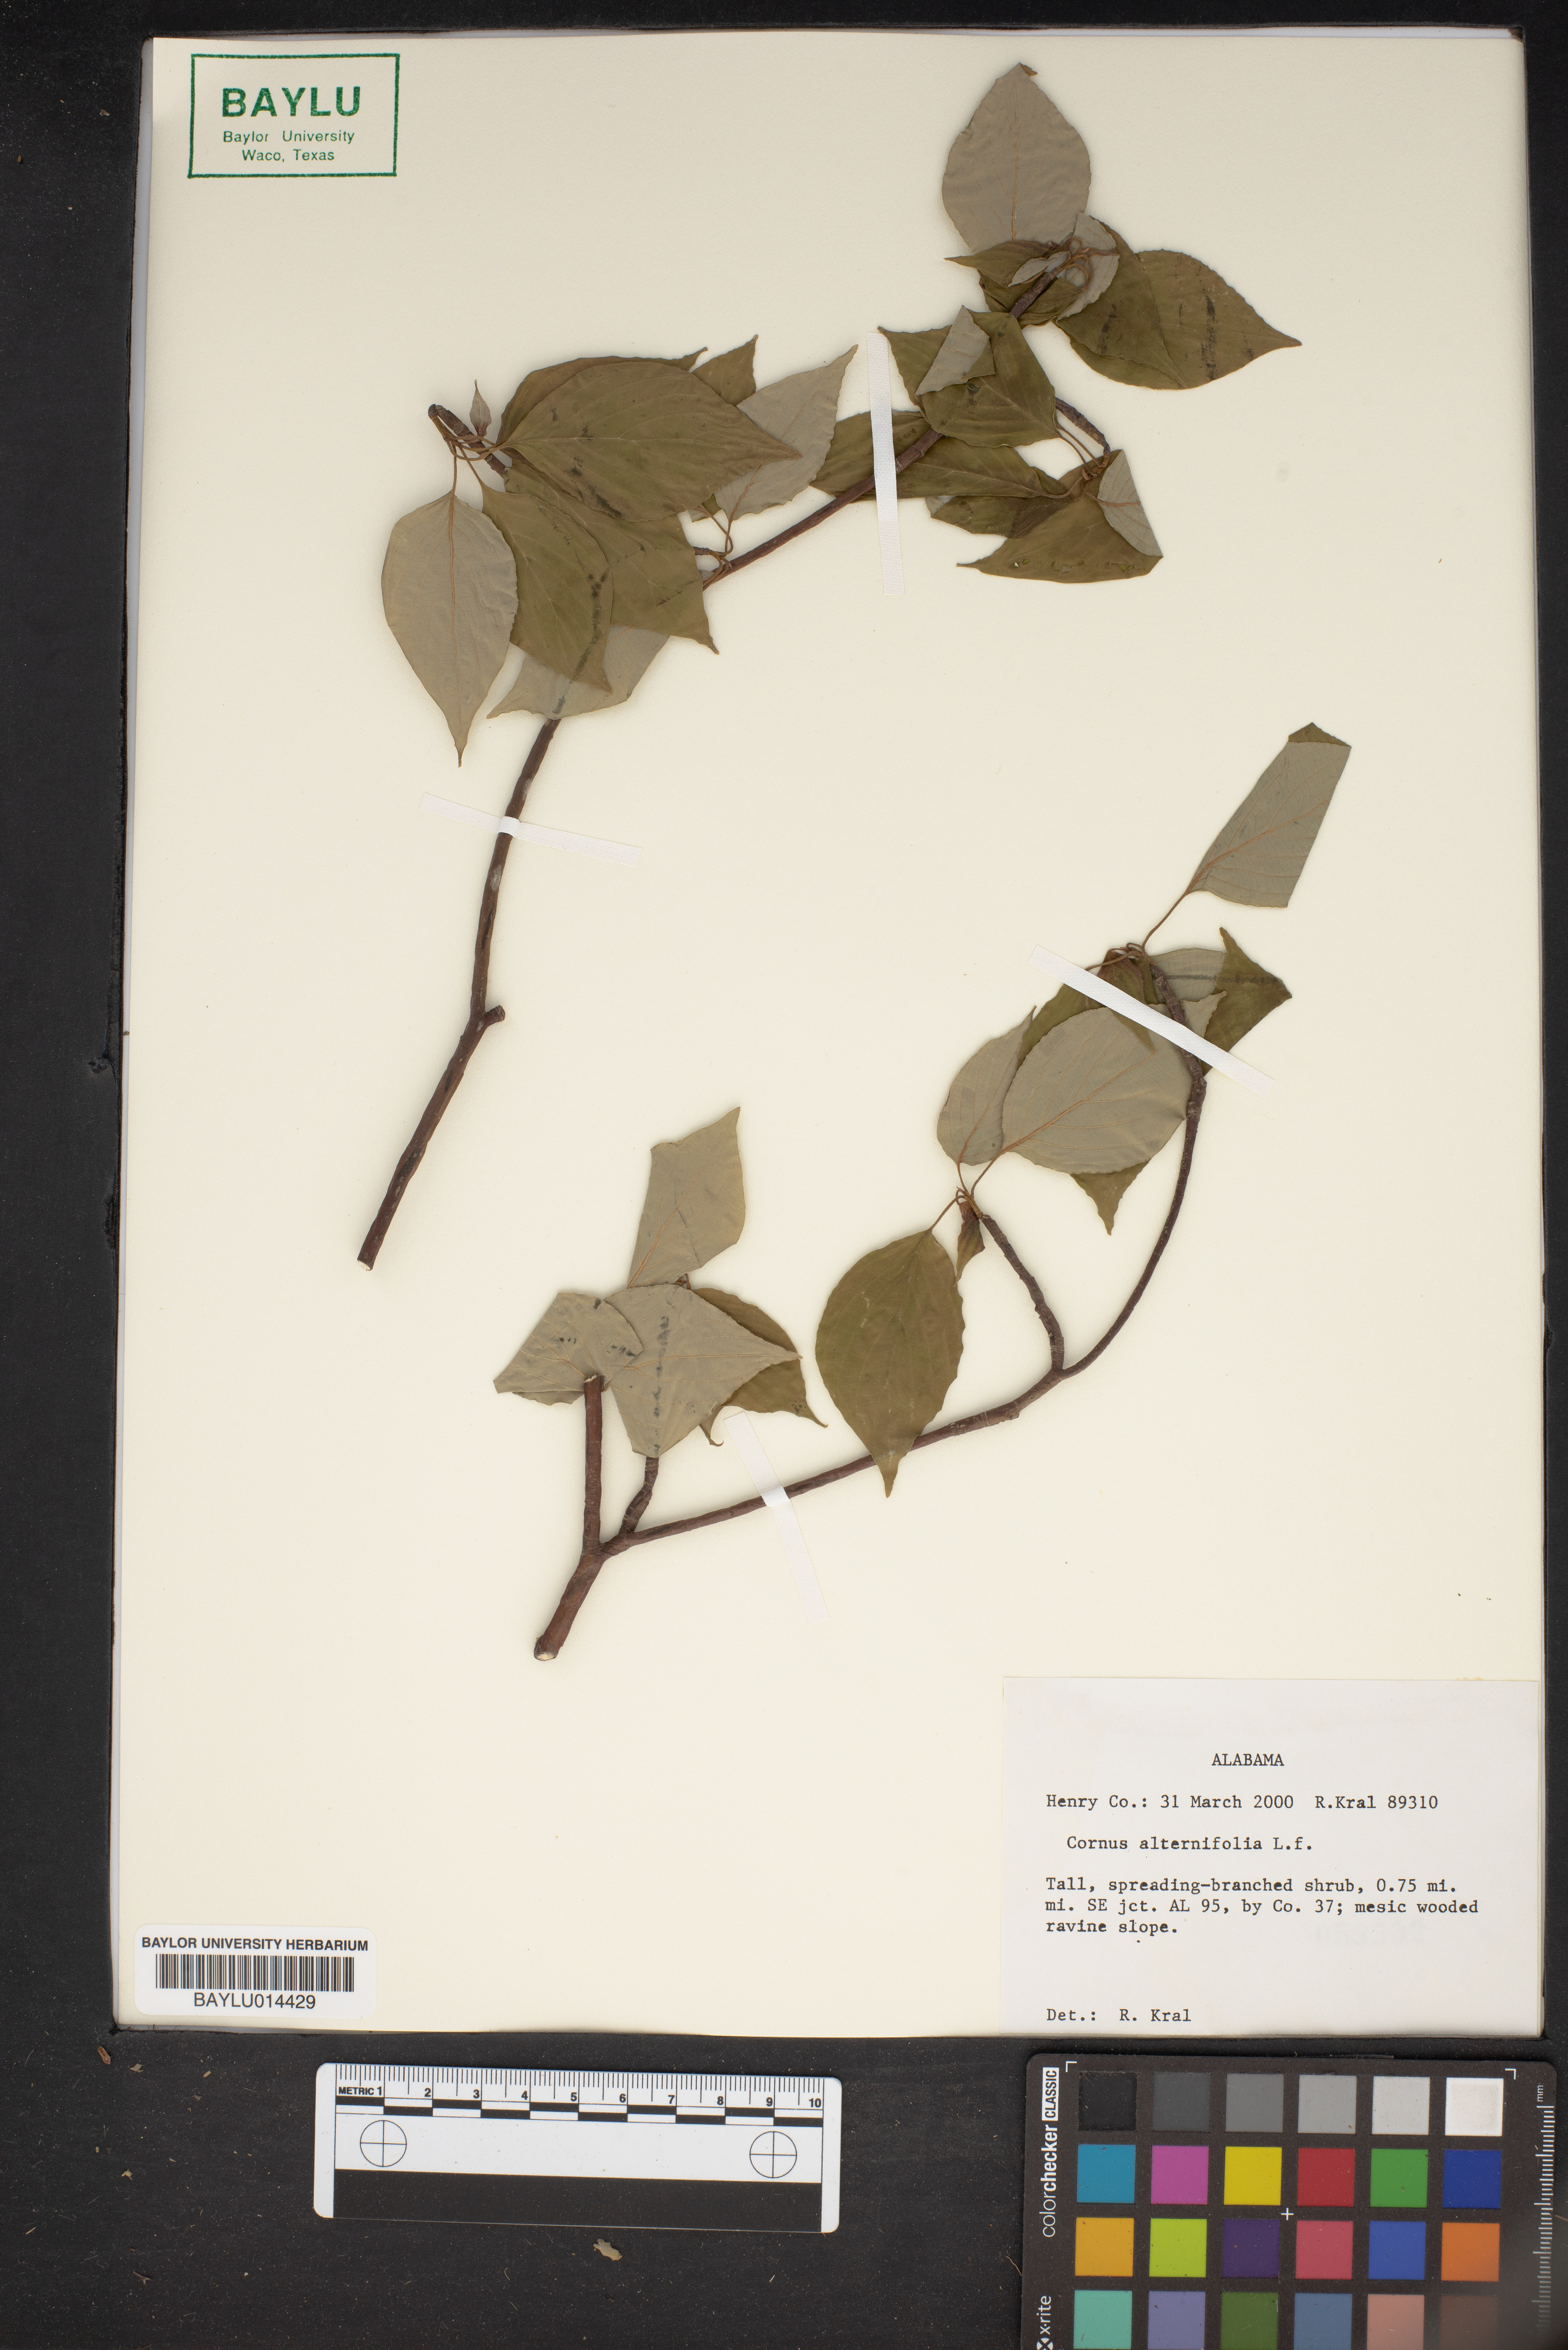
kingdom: Plantae
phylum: Tracheophyta
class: Magnoliopsida
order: Cornales
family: Cornaceae
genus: Cornus
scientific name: Cornus alternifolia
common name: Pagoda dogwood
